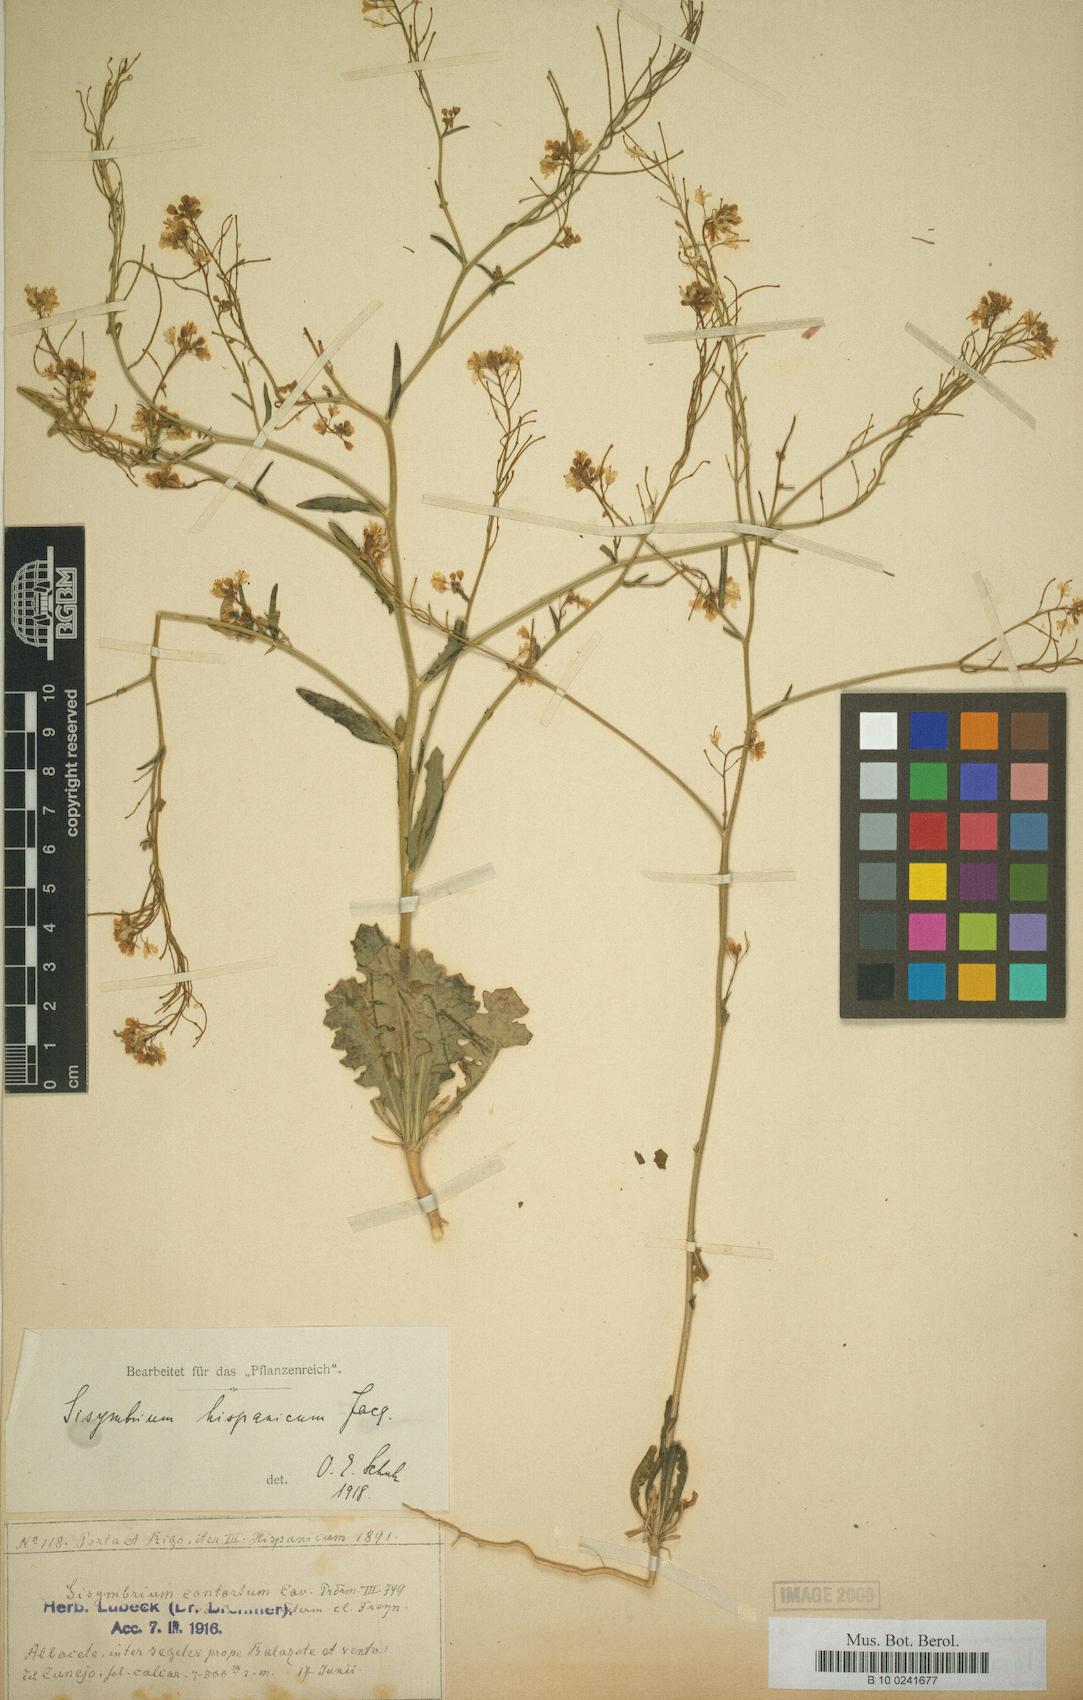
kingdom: Plantae
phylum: Tracheophyta
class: Magnoliopsida
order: Brassicales
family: Brassicaceae
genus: Sisymbrium
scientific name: Sisymbrium hispanicum
